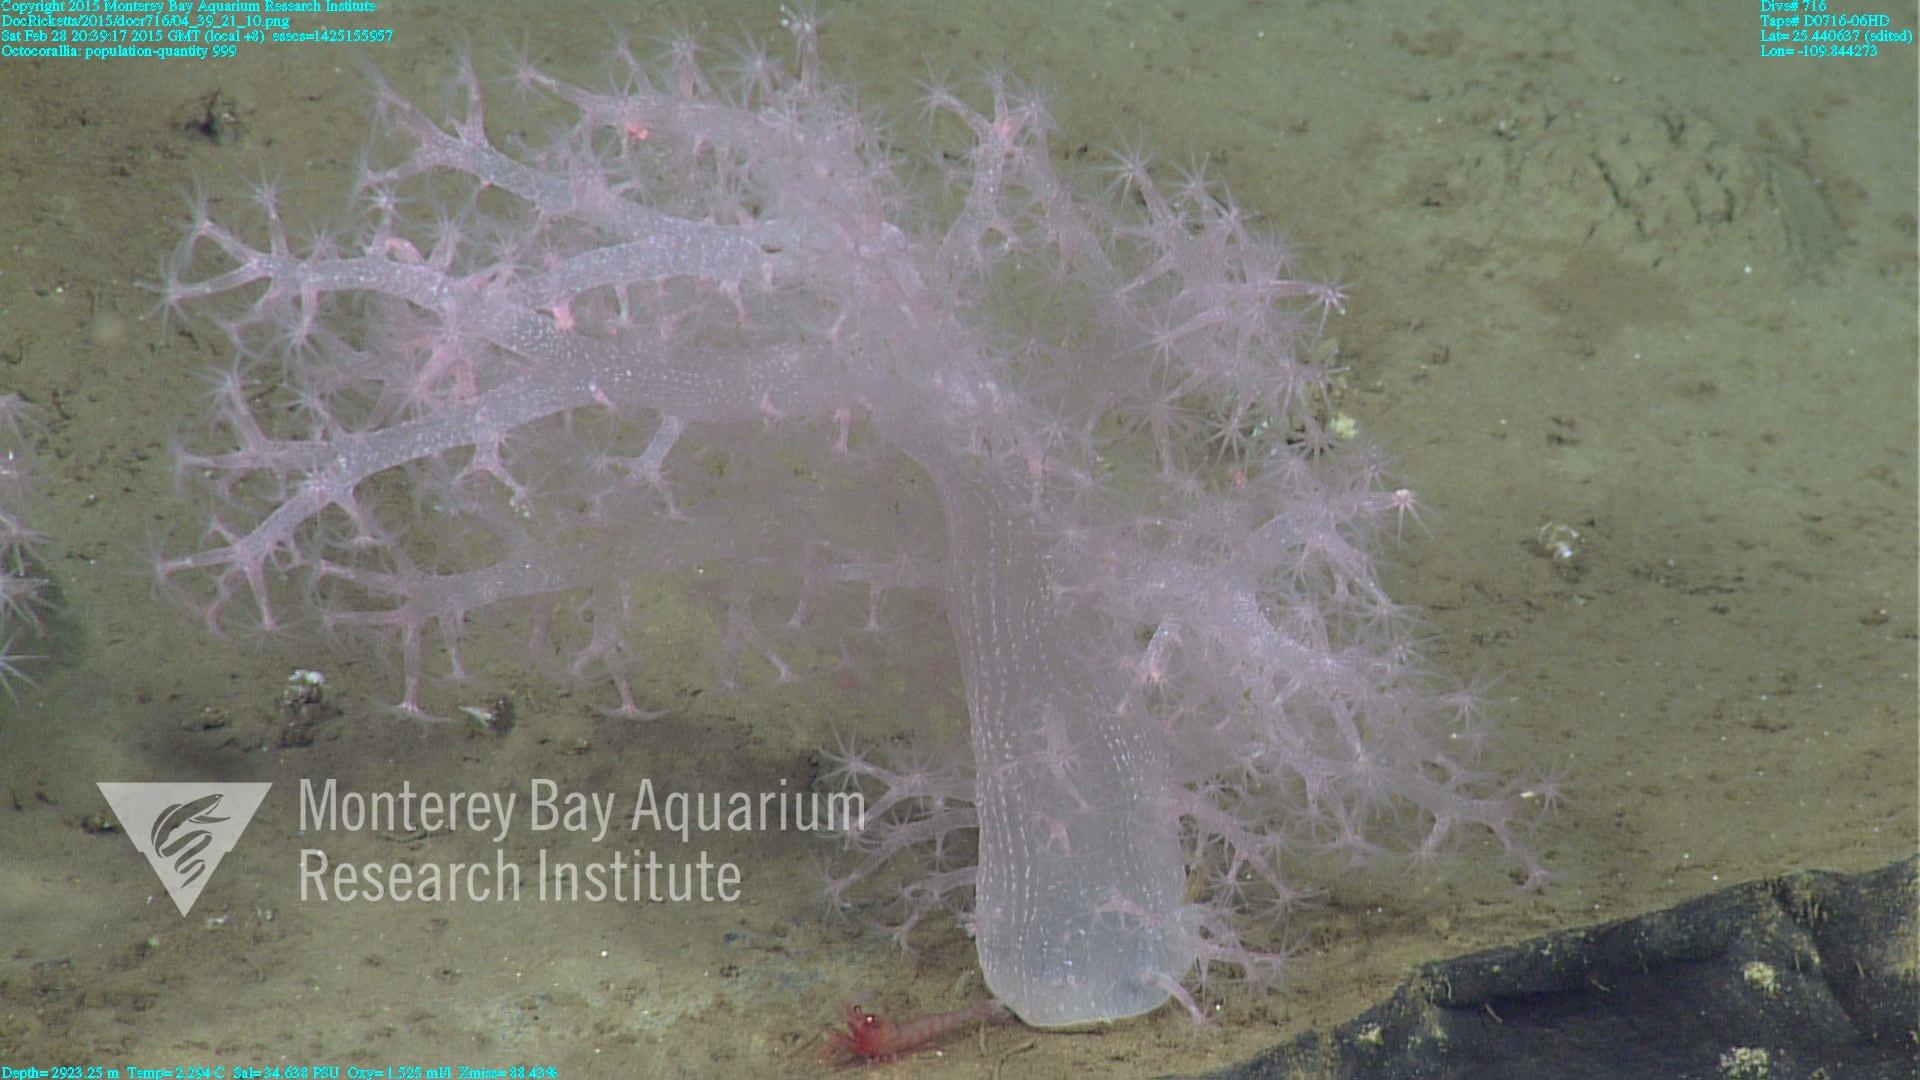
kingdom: Animalia
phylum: Cnidaria
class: Anthozoa
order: Malacalcyonacea
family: Alcyoniidae
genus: Gersemia
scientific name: Gersemia juliepackardae
